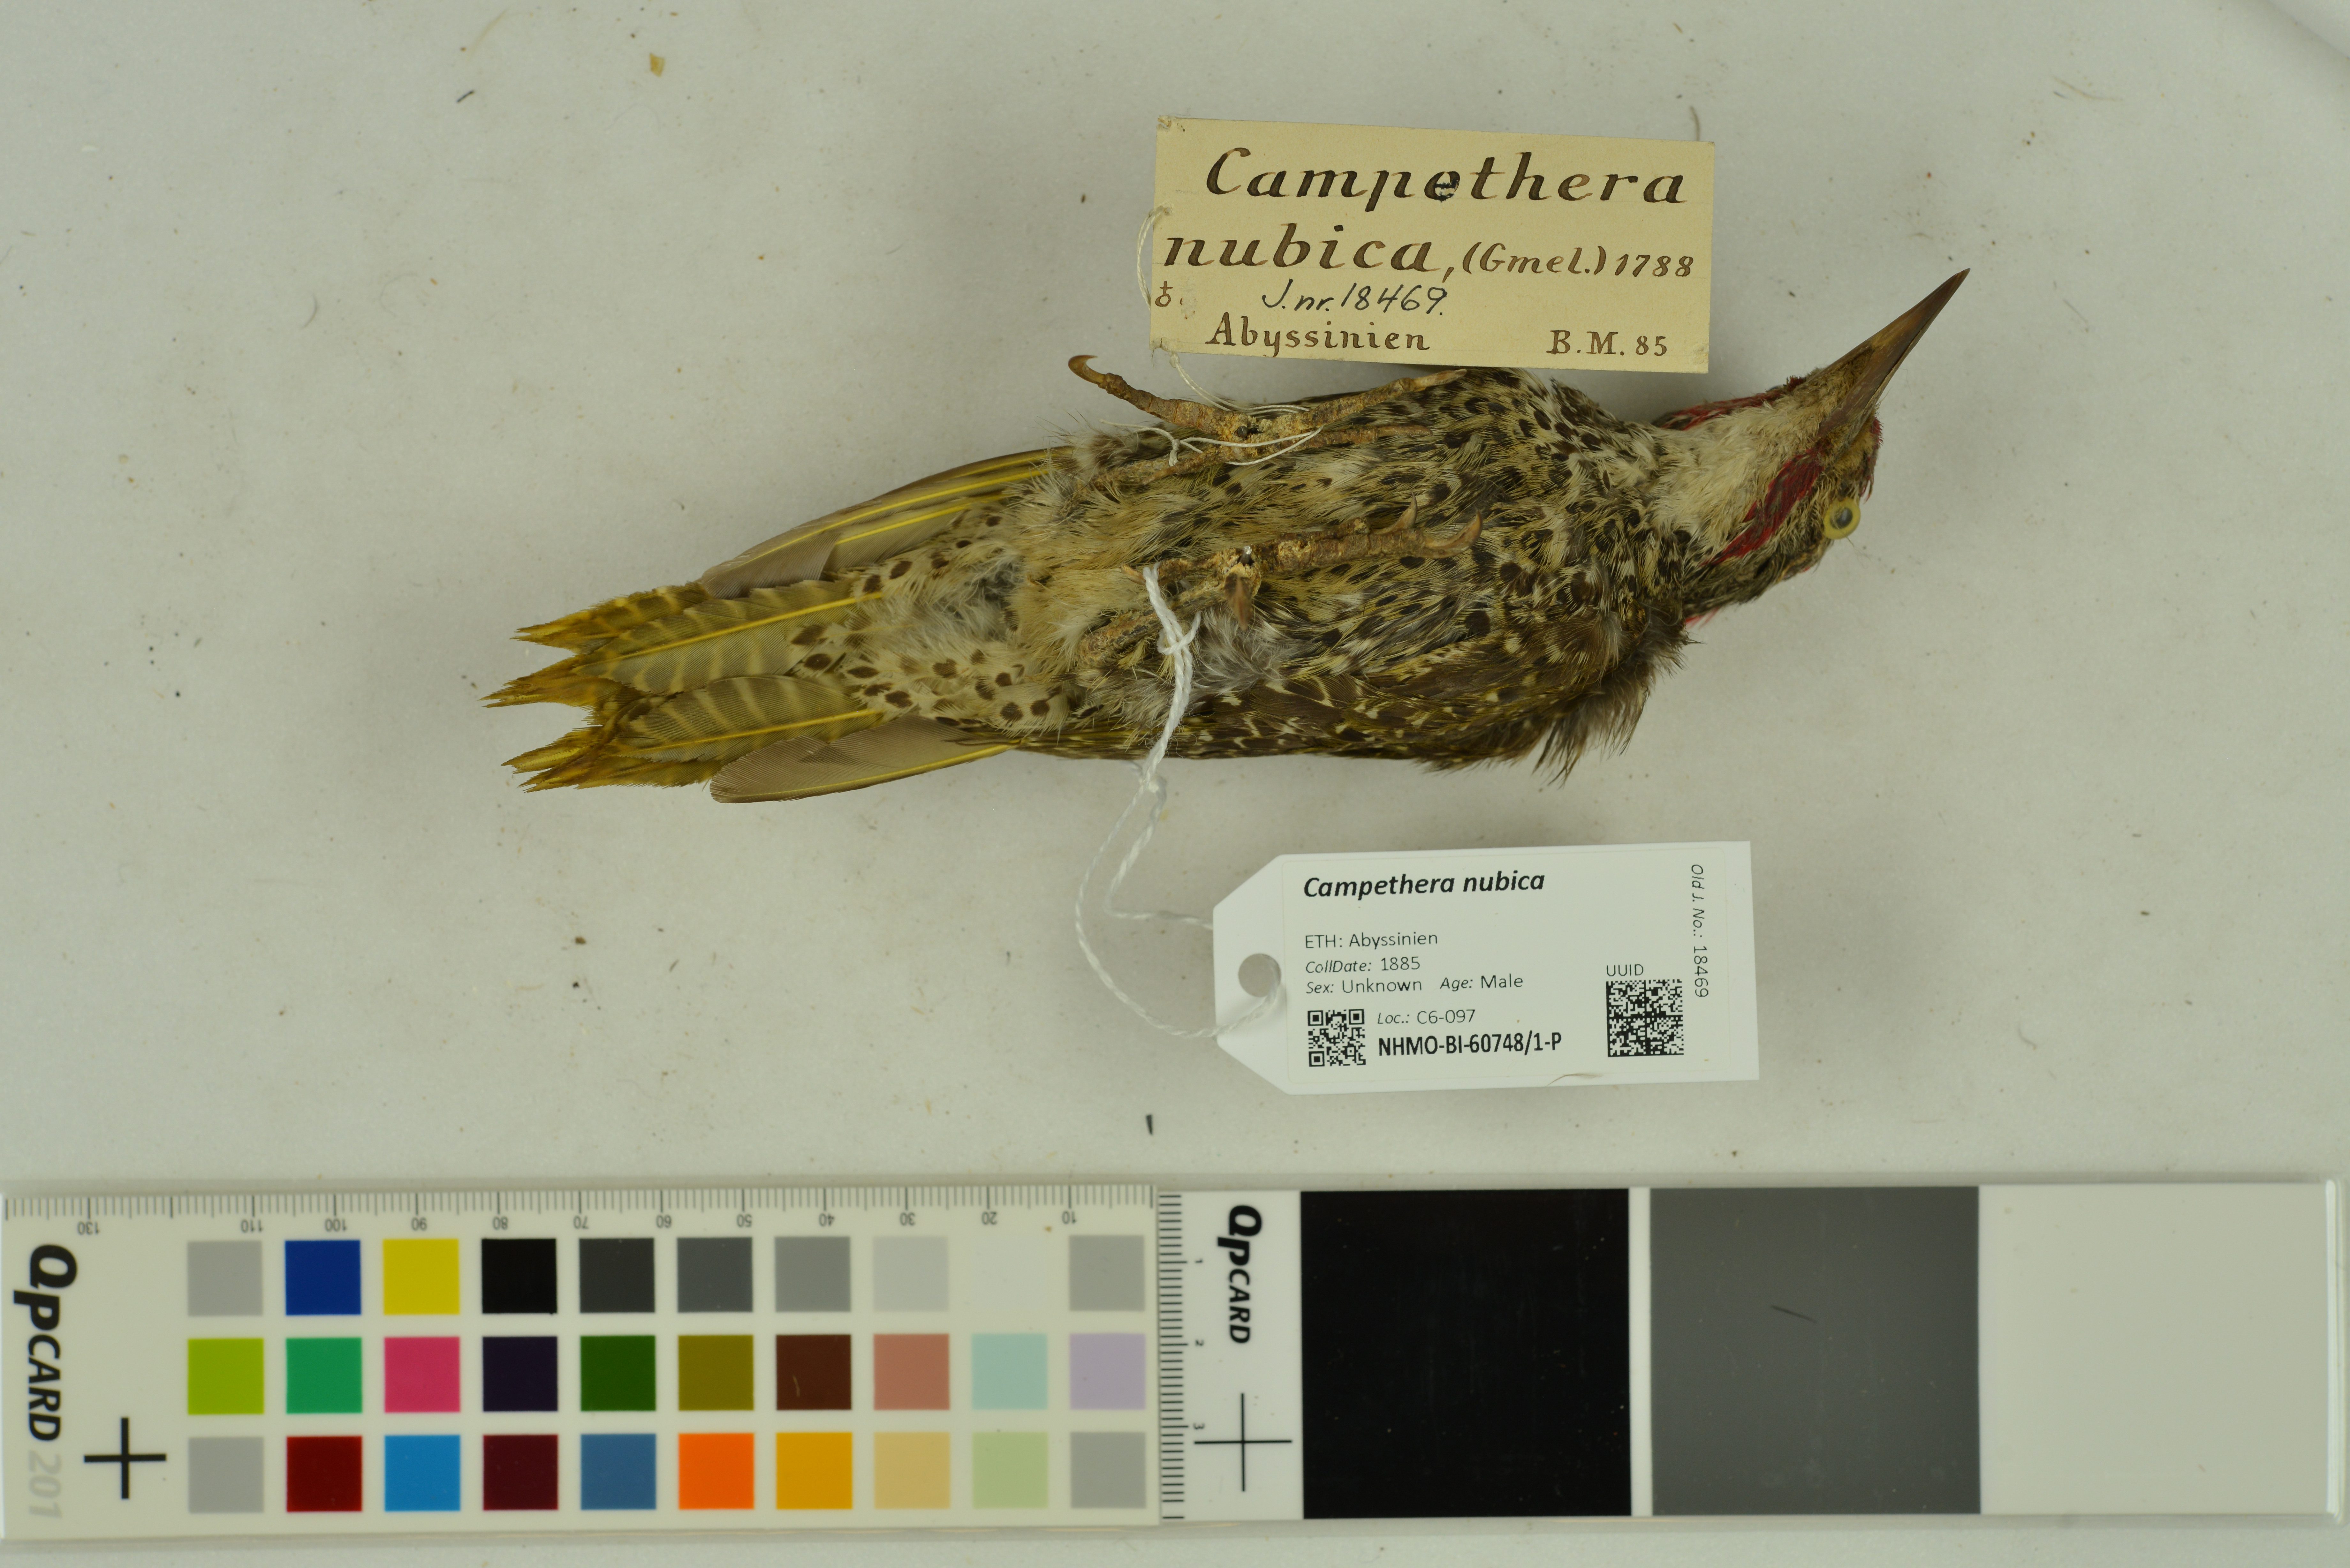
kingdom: Animalia
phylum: Chordata
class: Aves
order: Piciformes
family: Picidae
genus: Campethera
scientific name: Campethera nubica
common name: Nubian woodpecker
